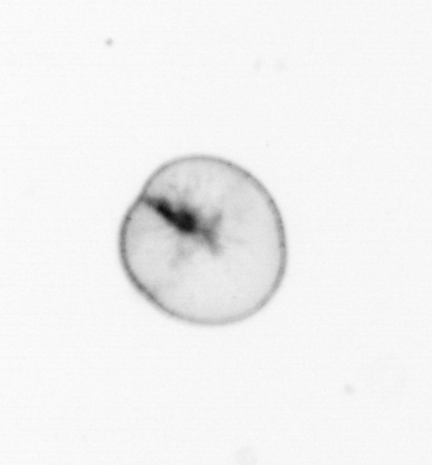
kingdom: Chromista
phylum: Myzozoa
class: Dinophyceae
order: Noctilucales
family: Noctilucaceae
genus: Noctiluca
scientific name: Noctiluca scintillans
